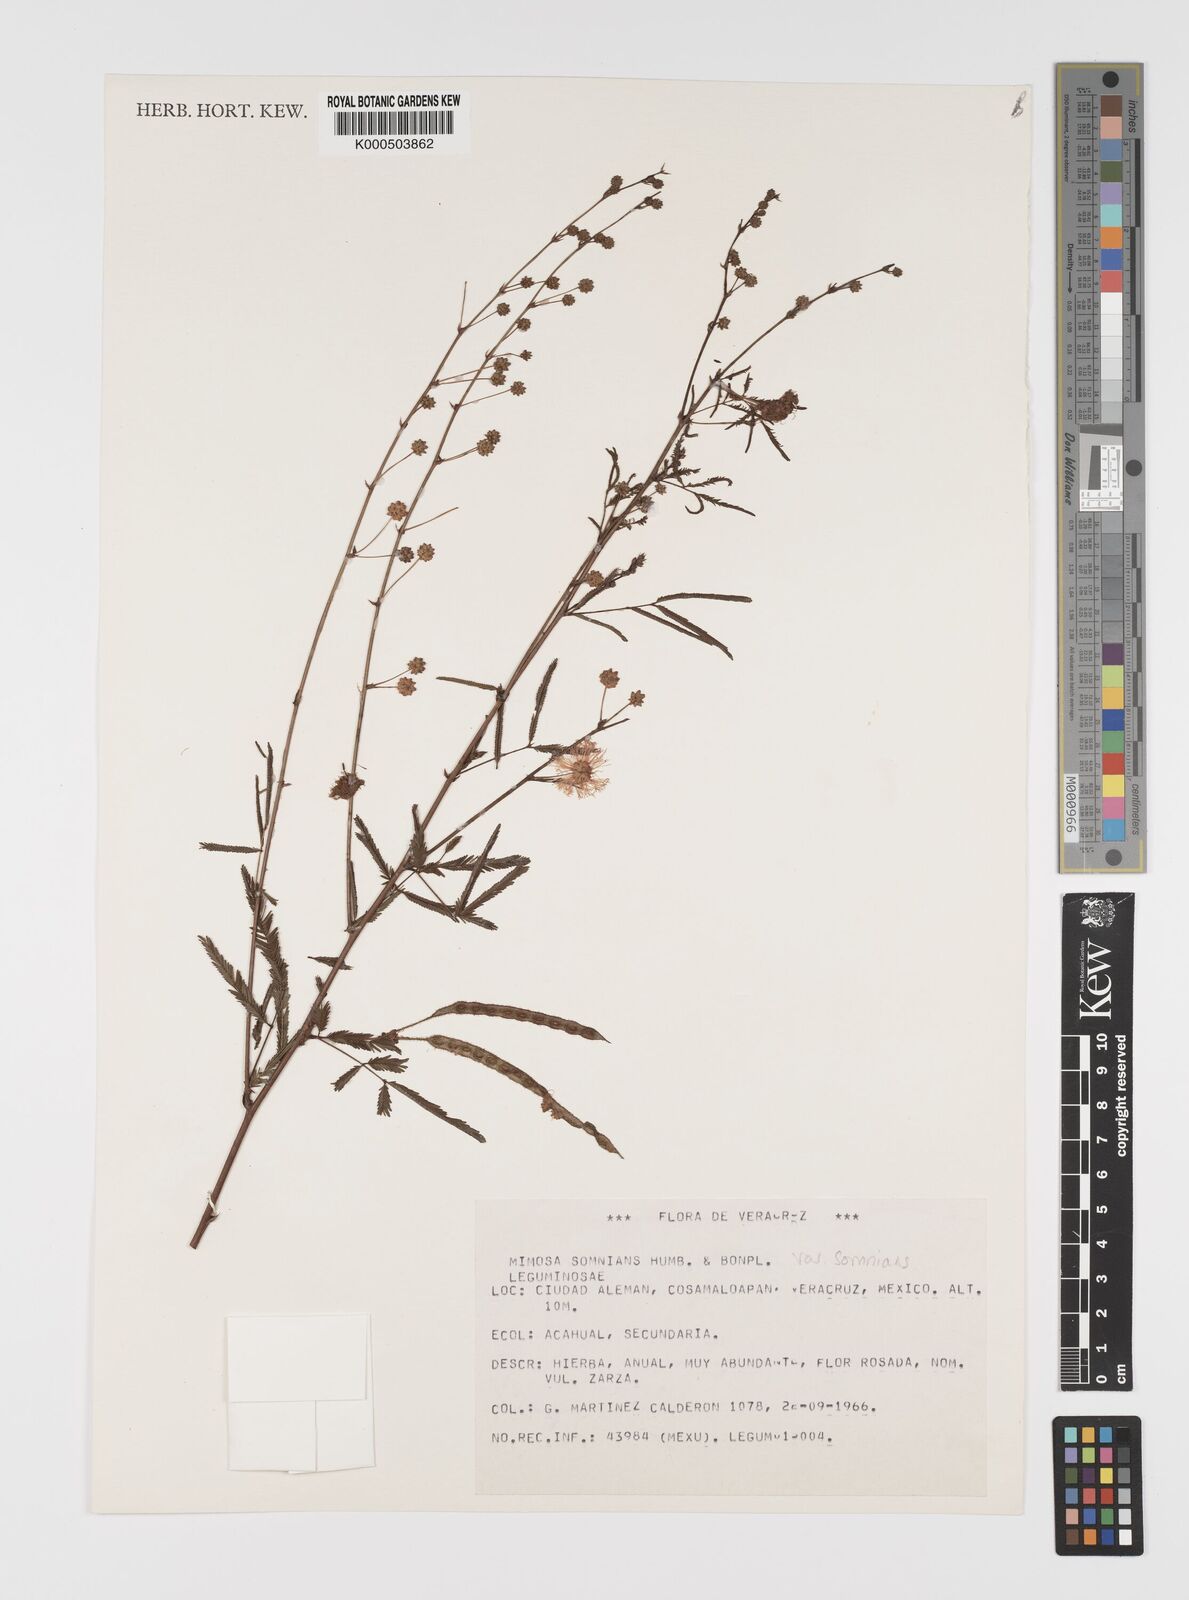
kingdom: Plantae
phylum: Tracheophyta
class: Magnoliopsida
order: Fabales
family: Fabaceae
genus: Mimosa
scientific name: Mimosa somnians
